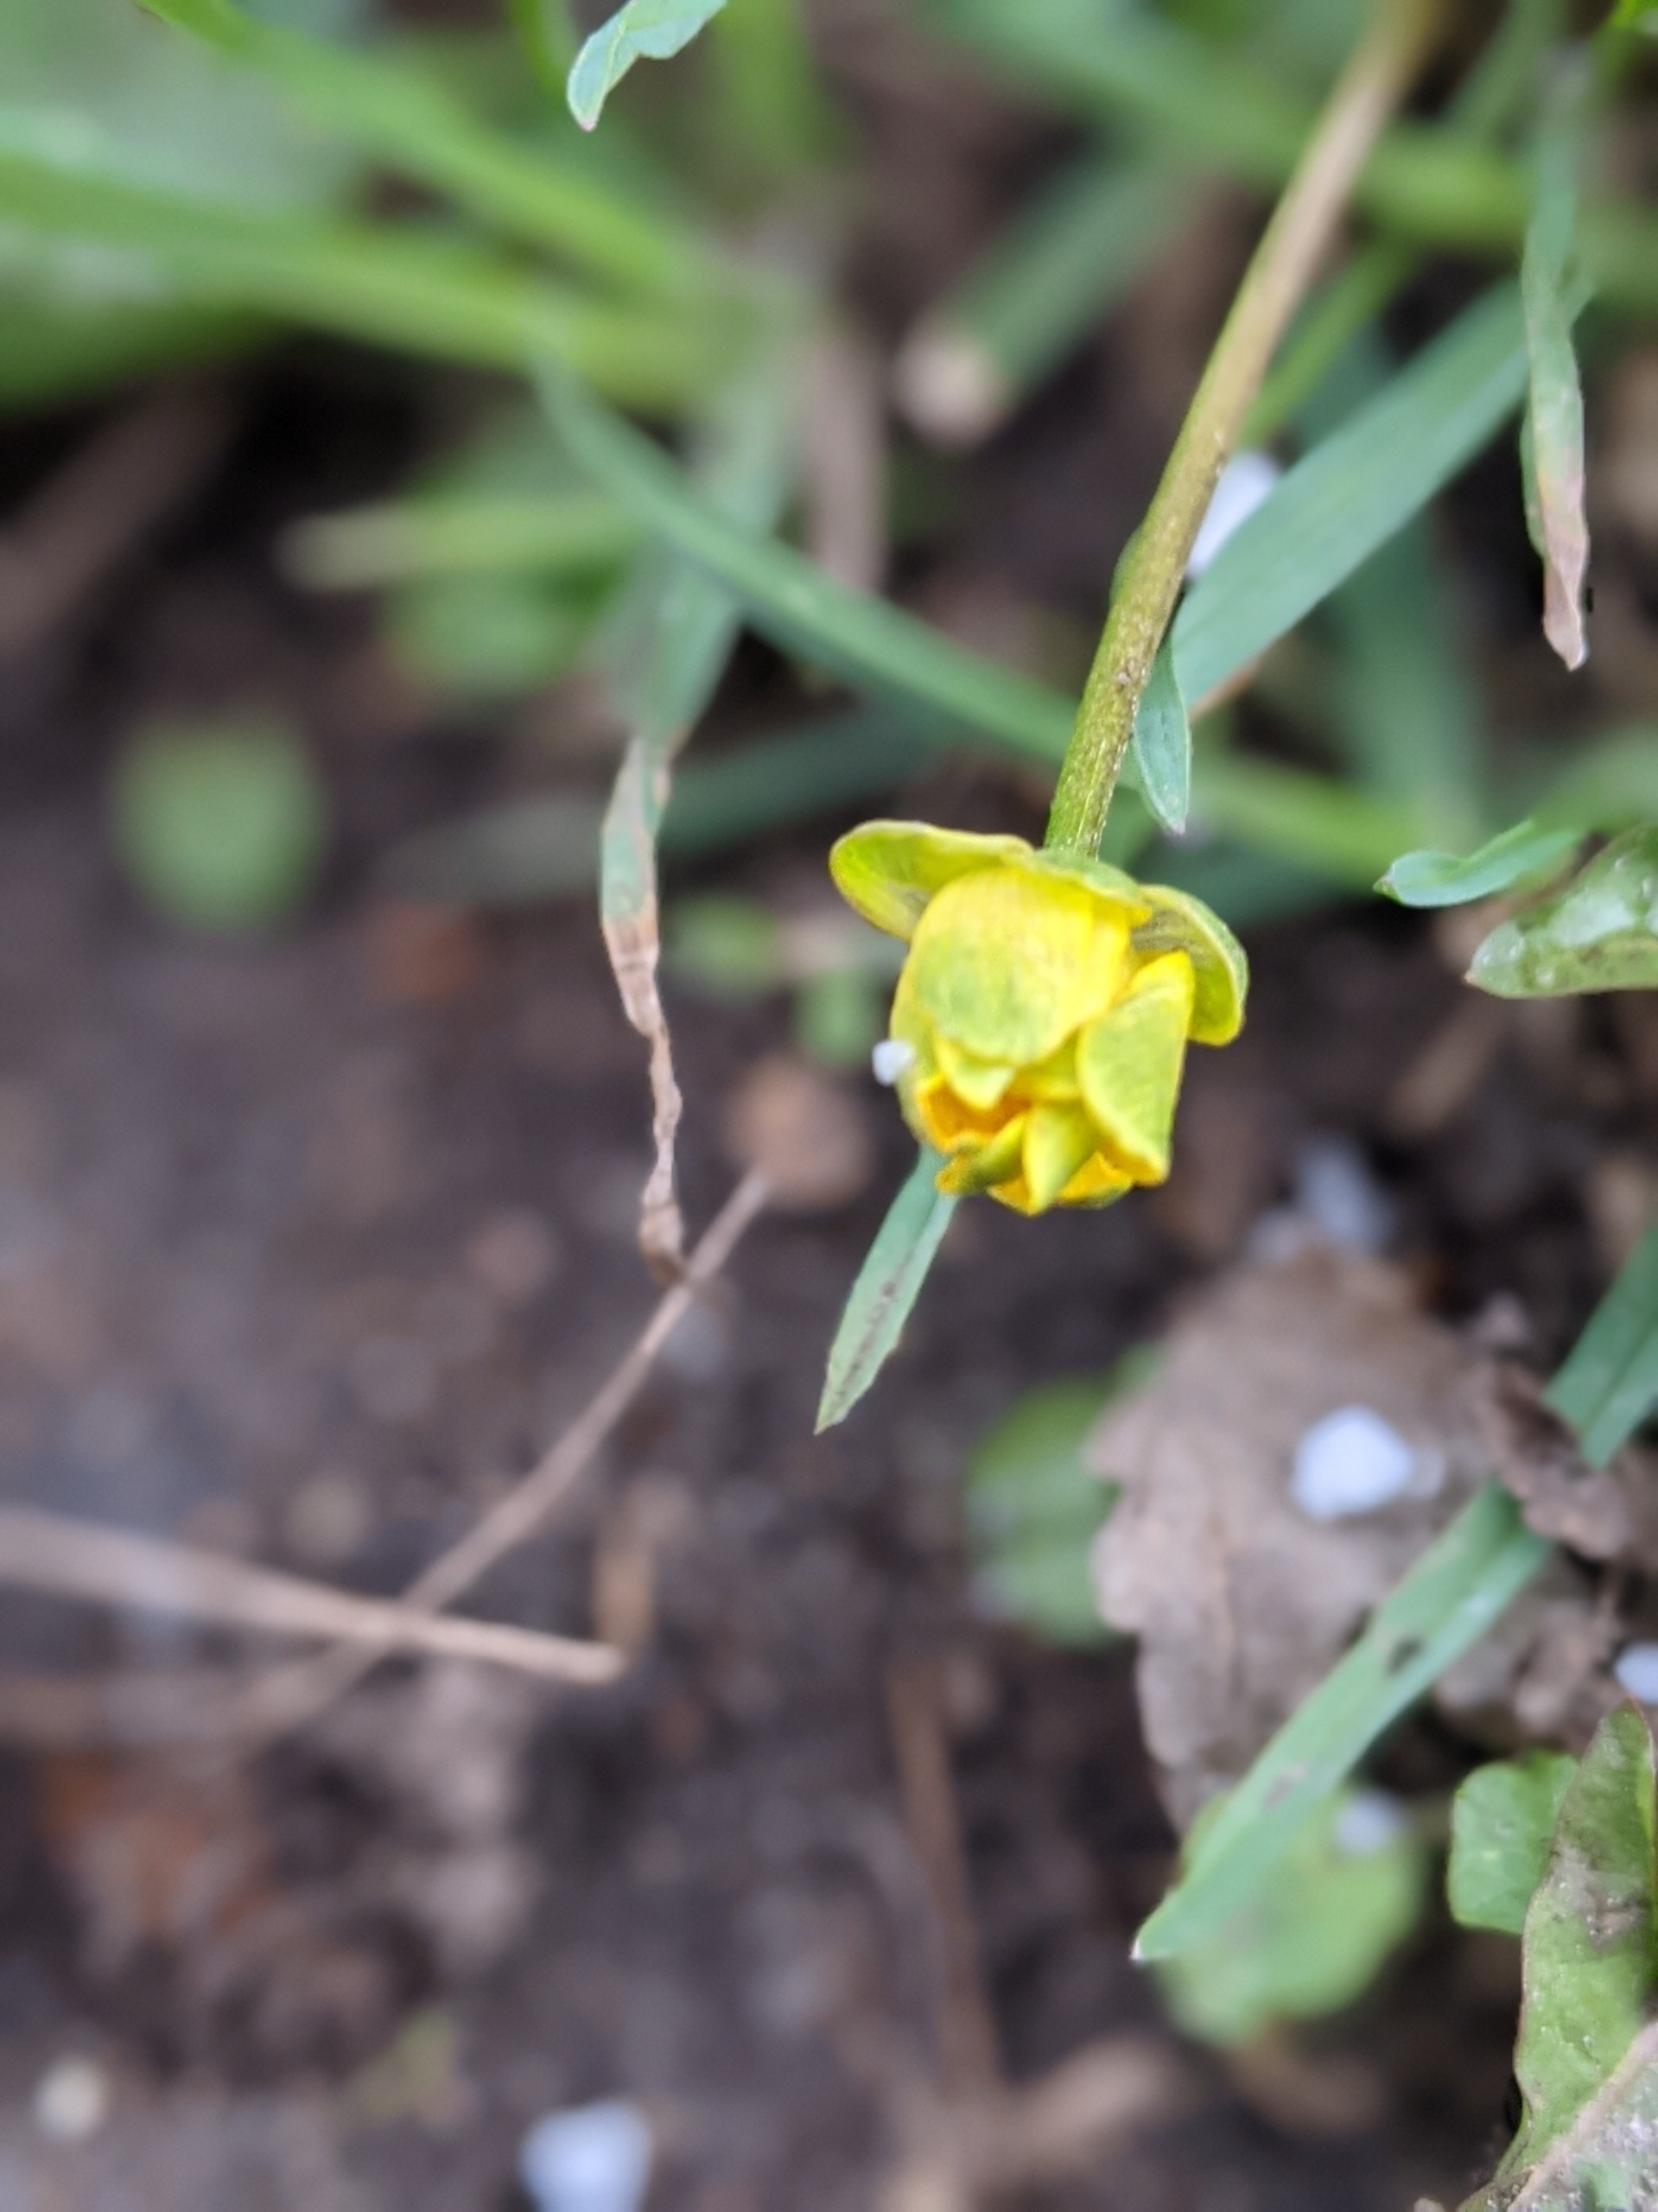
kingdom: Plantae
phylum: Tracheophyta
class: Magnoliopsida
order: Ranunculales
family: Ranunculaceae
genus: Ficaria
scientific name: Ficaria verna
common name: Vorterod
